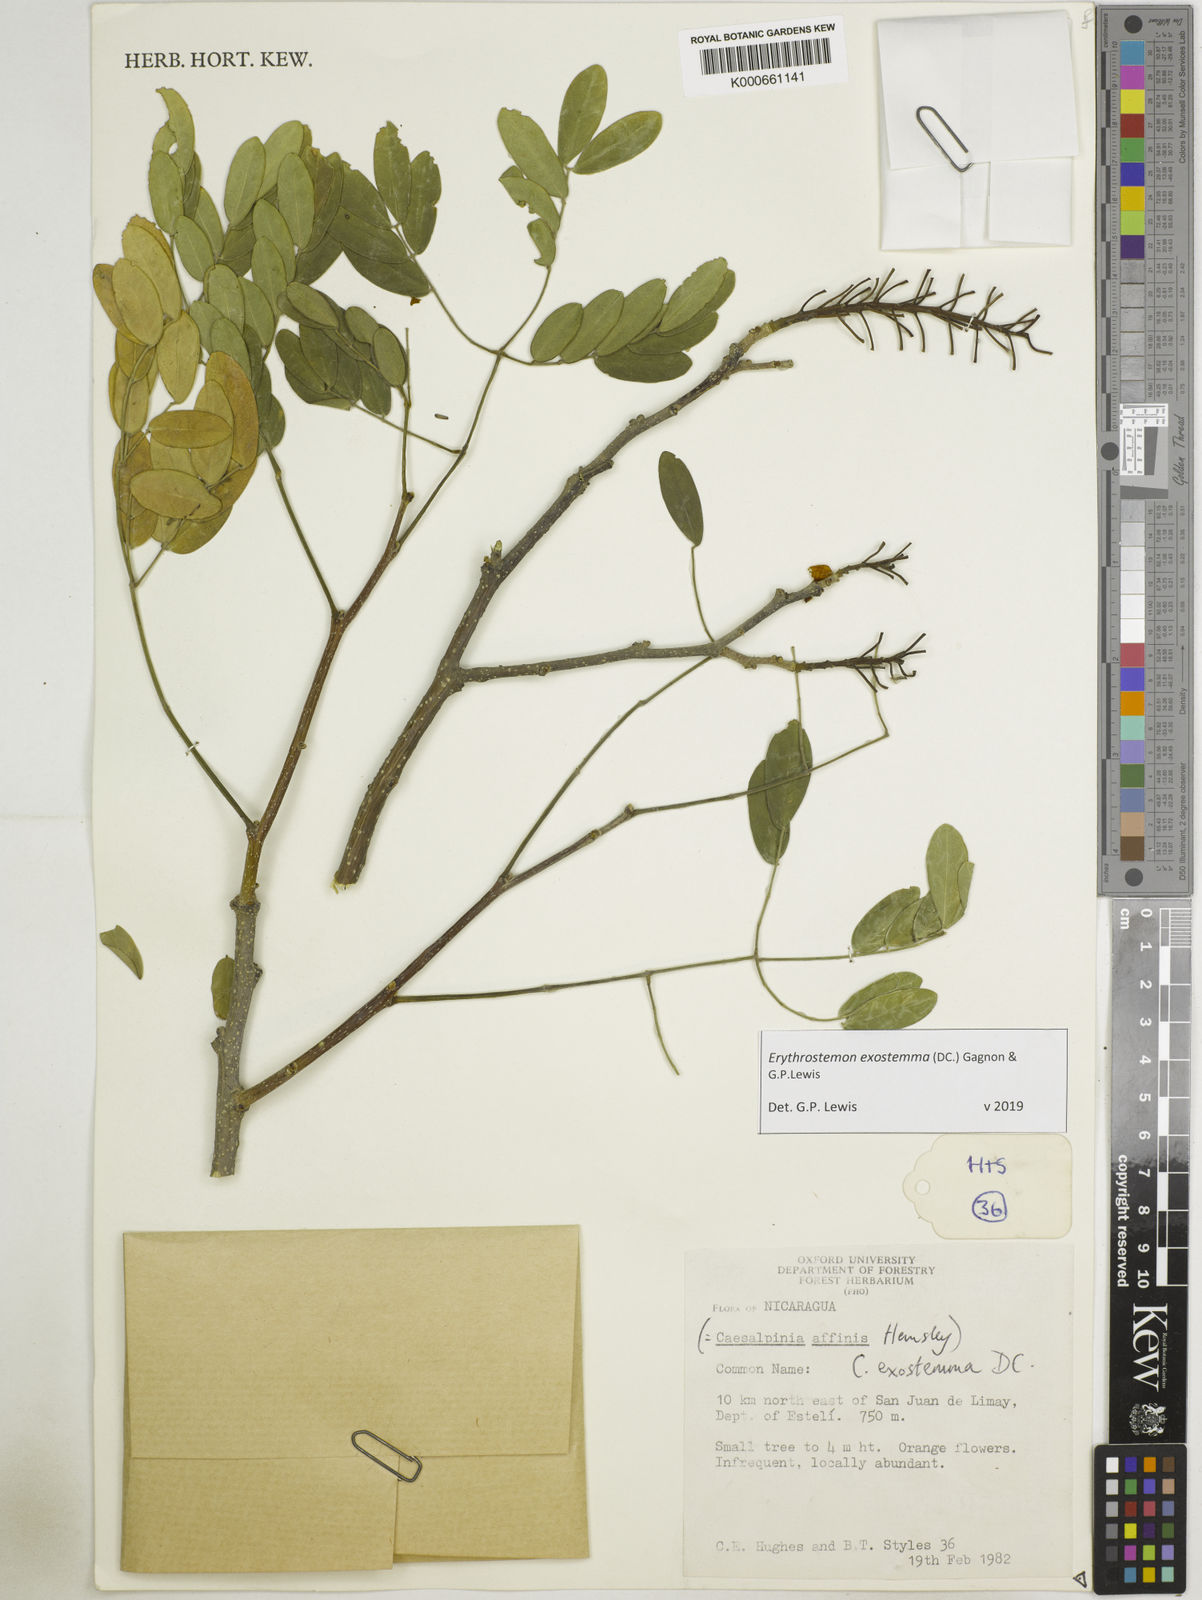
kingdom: Plantae
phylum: Tracheophyta
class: Magnoliopsida
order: Fabales
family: Fabaceae
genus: Erythrostemon
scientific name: Erythrostemon exostemma
